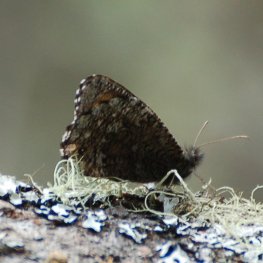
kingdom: Animalia
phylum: Arthropoda
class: Insecta
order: Lepidoptera
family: Nymphalidae
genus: Oeneis
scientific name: Oeneis jutta
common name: Jutta Arctic
